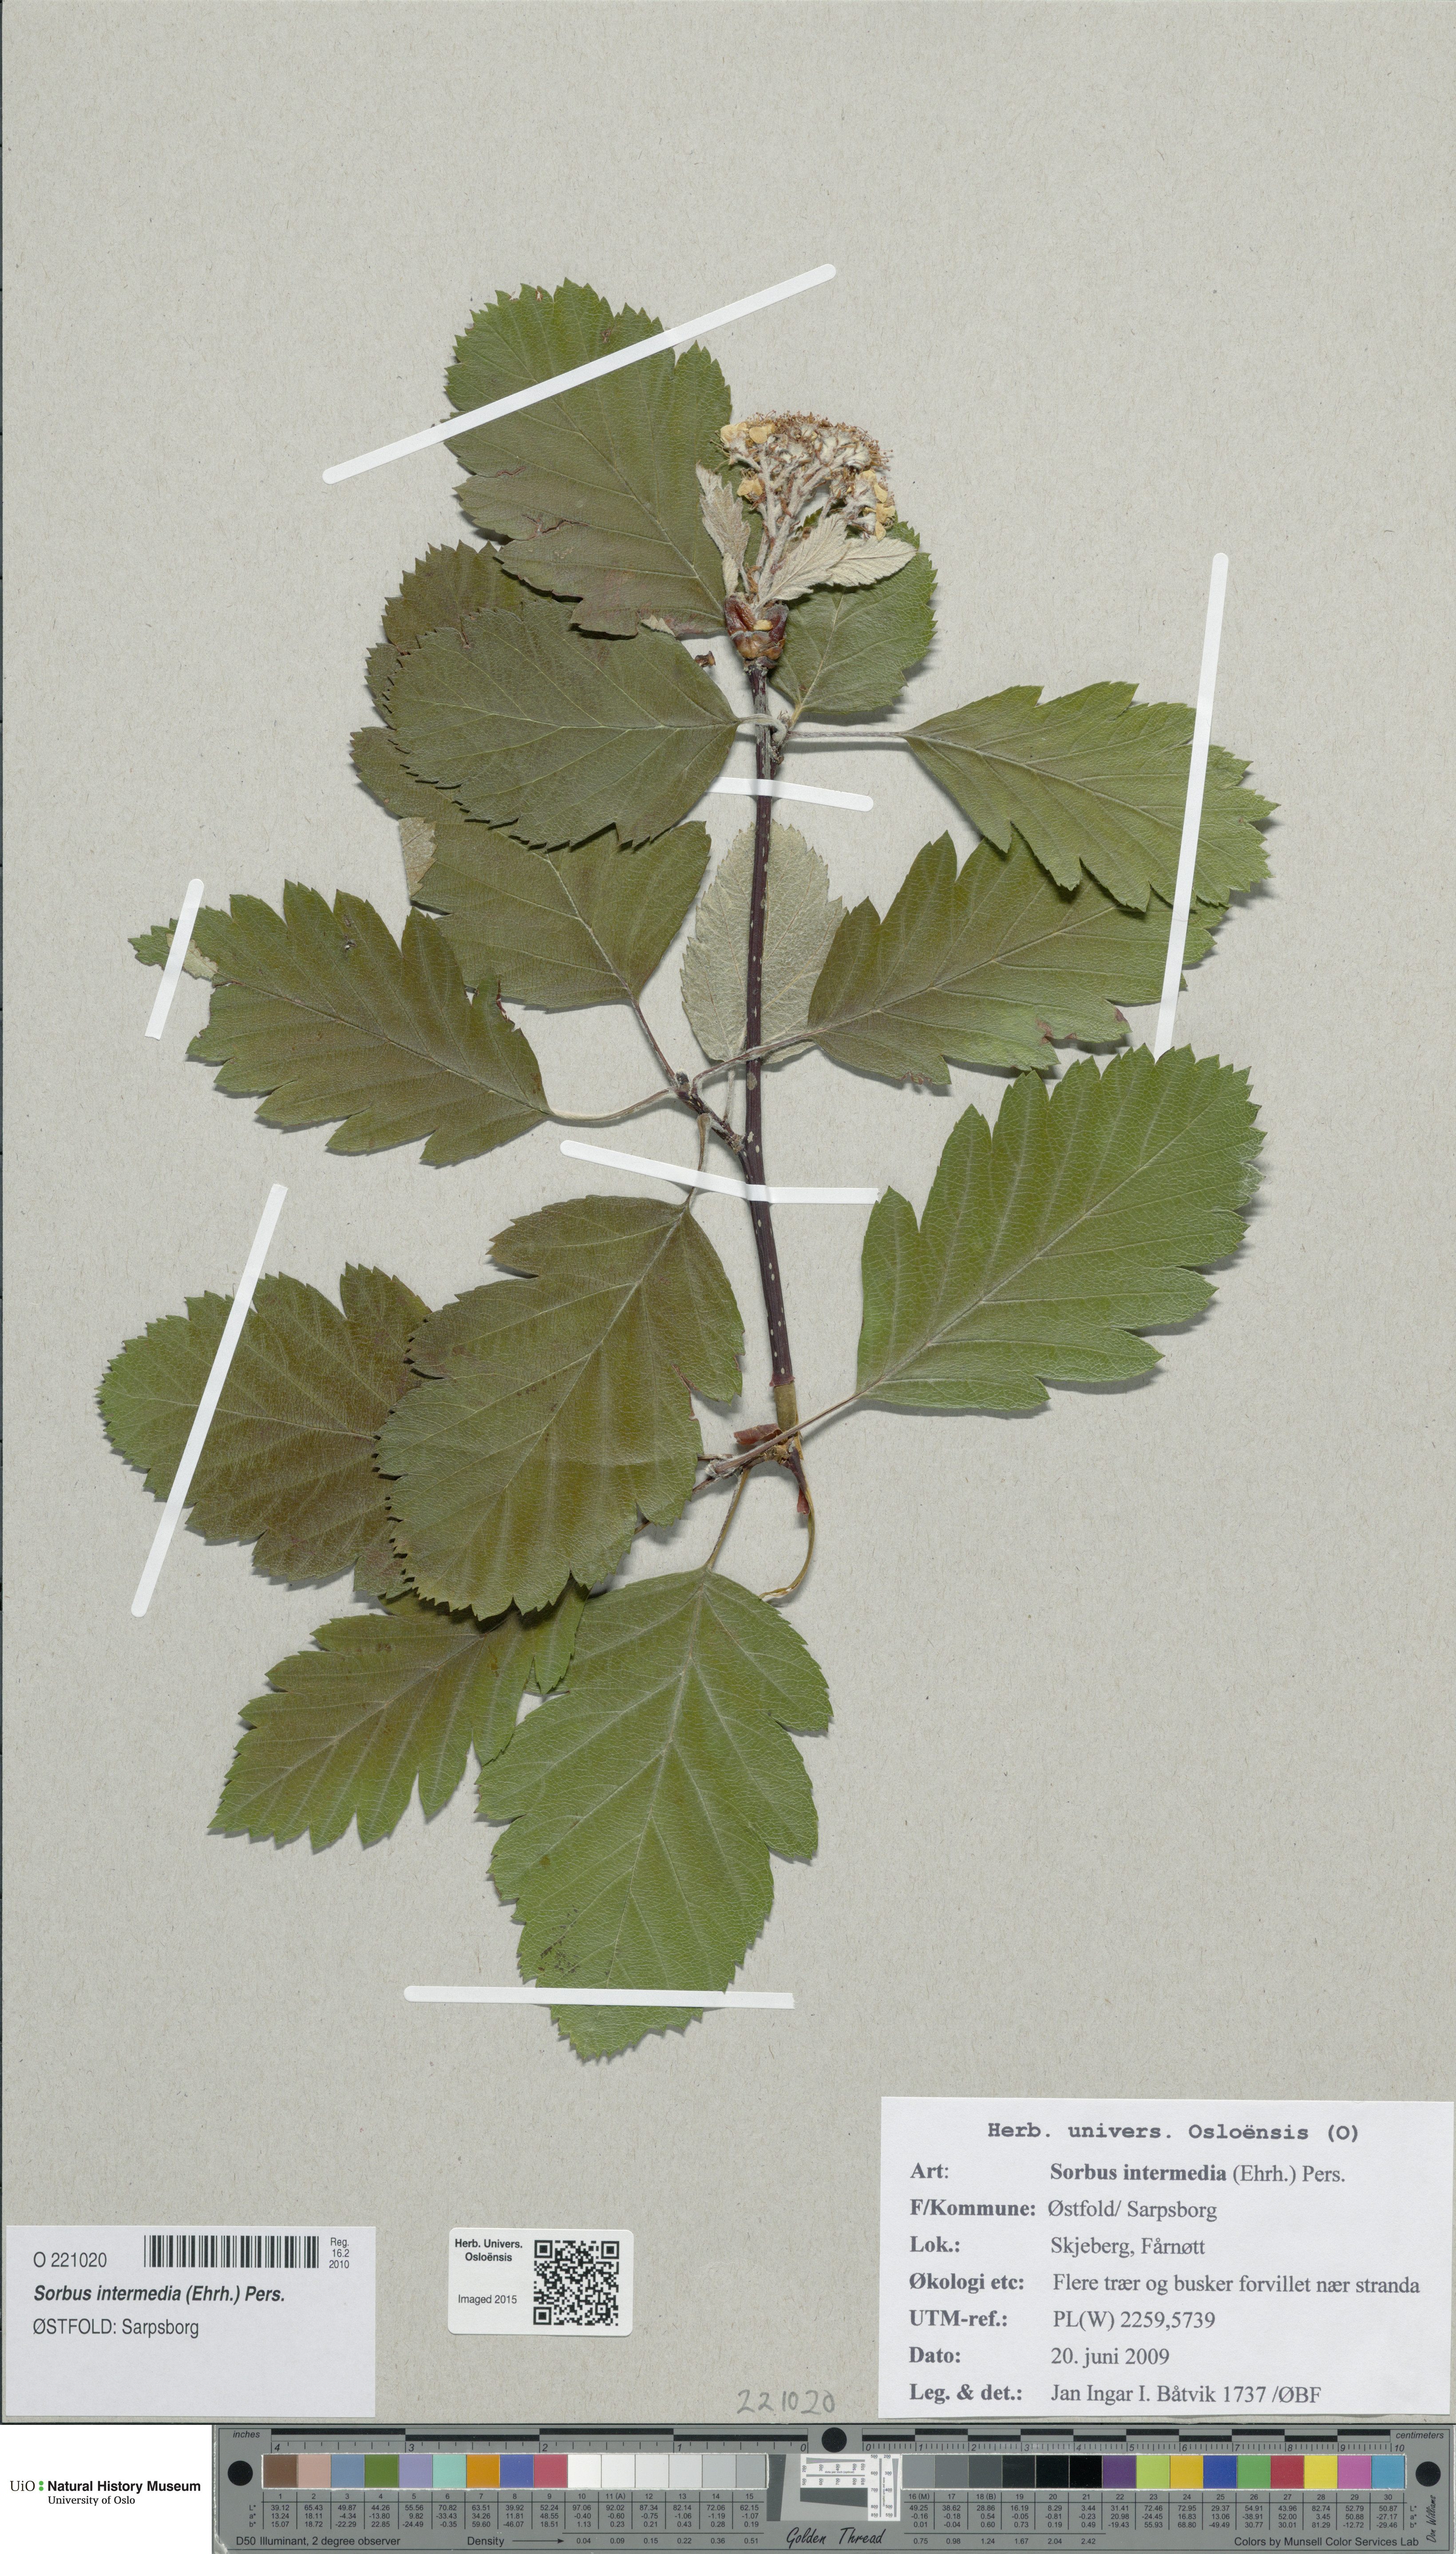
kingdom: Plantae
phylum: Tracheophyta
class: Magnoliopsida
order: Rosales
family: Rosaceae
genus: Scandosorbus
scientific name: Scandosorbus intermedia
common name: Swedish whitebeam
